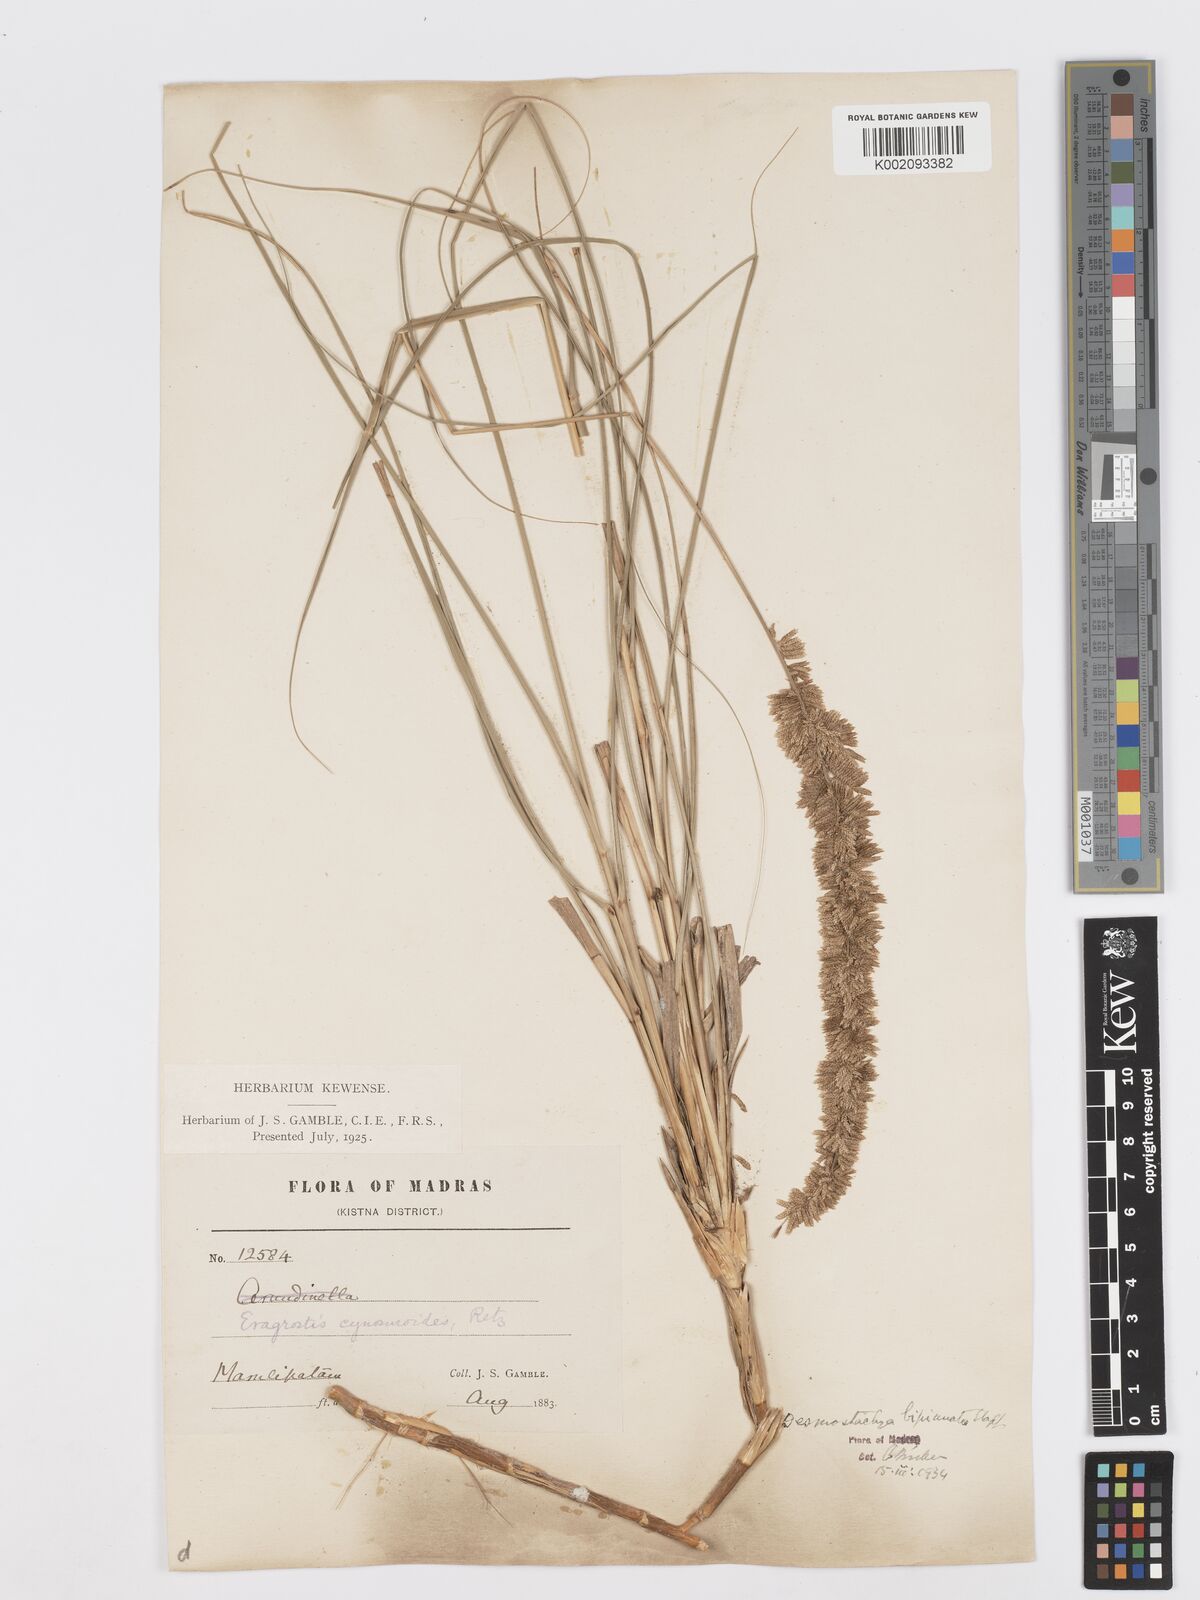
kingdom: Plantae
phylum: Tracheophyta
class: Liliopsida
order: Poales
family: Poaceae
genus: Desmostachya
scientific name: Desmostachya bipinnata
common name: Crowfoot grass
